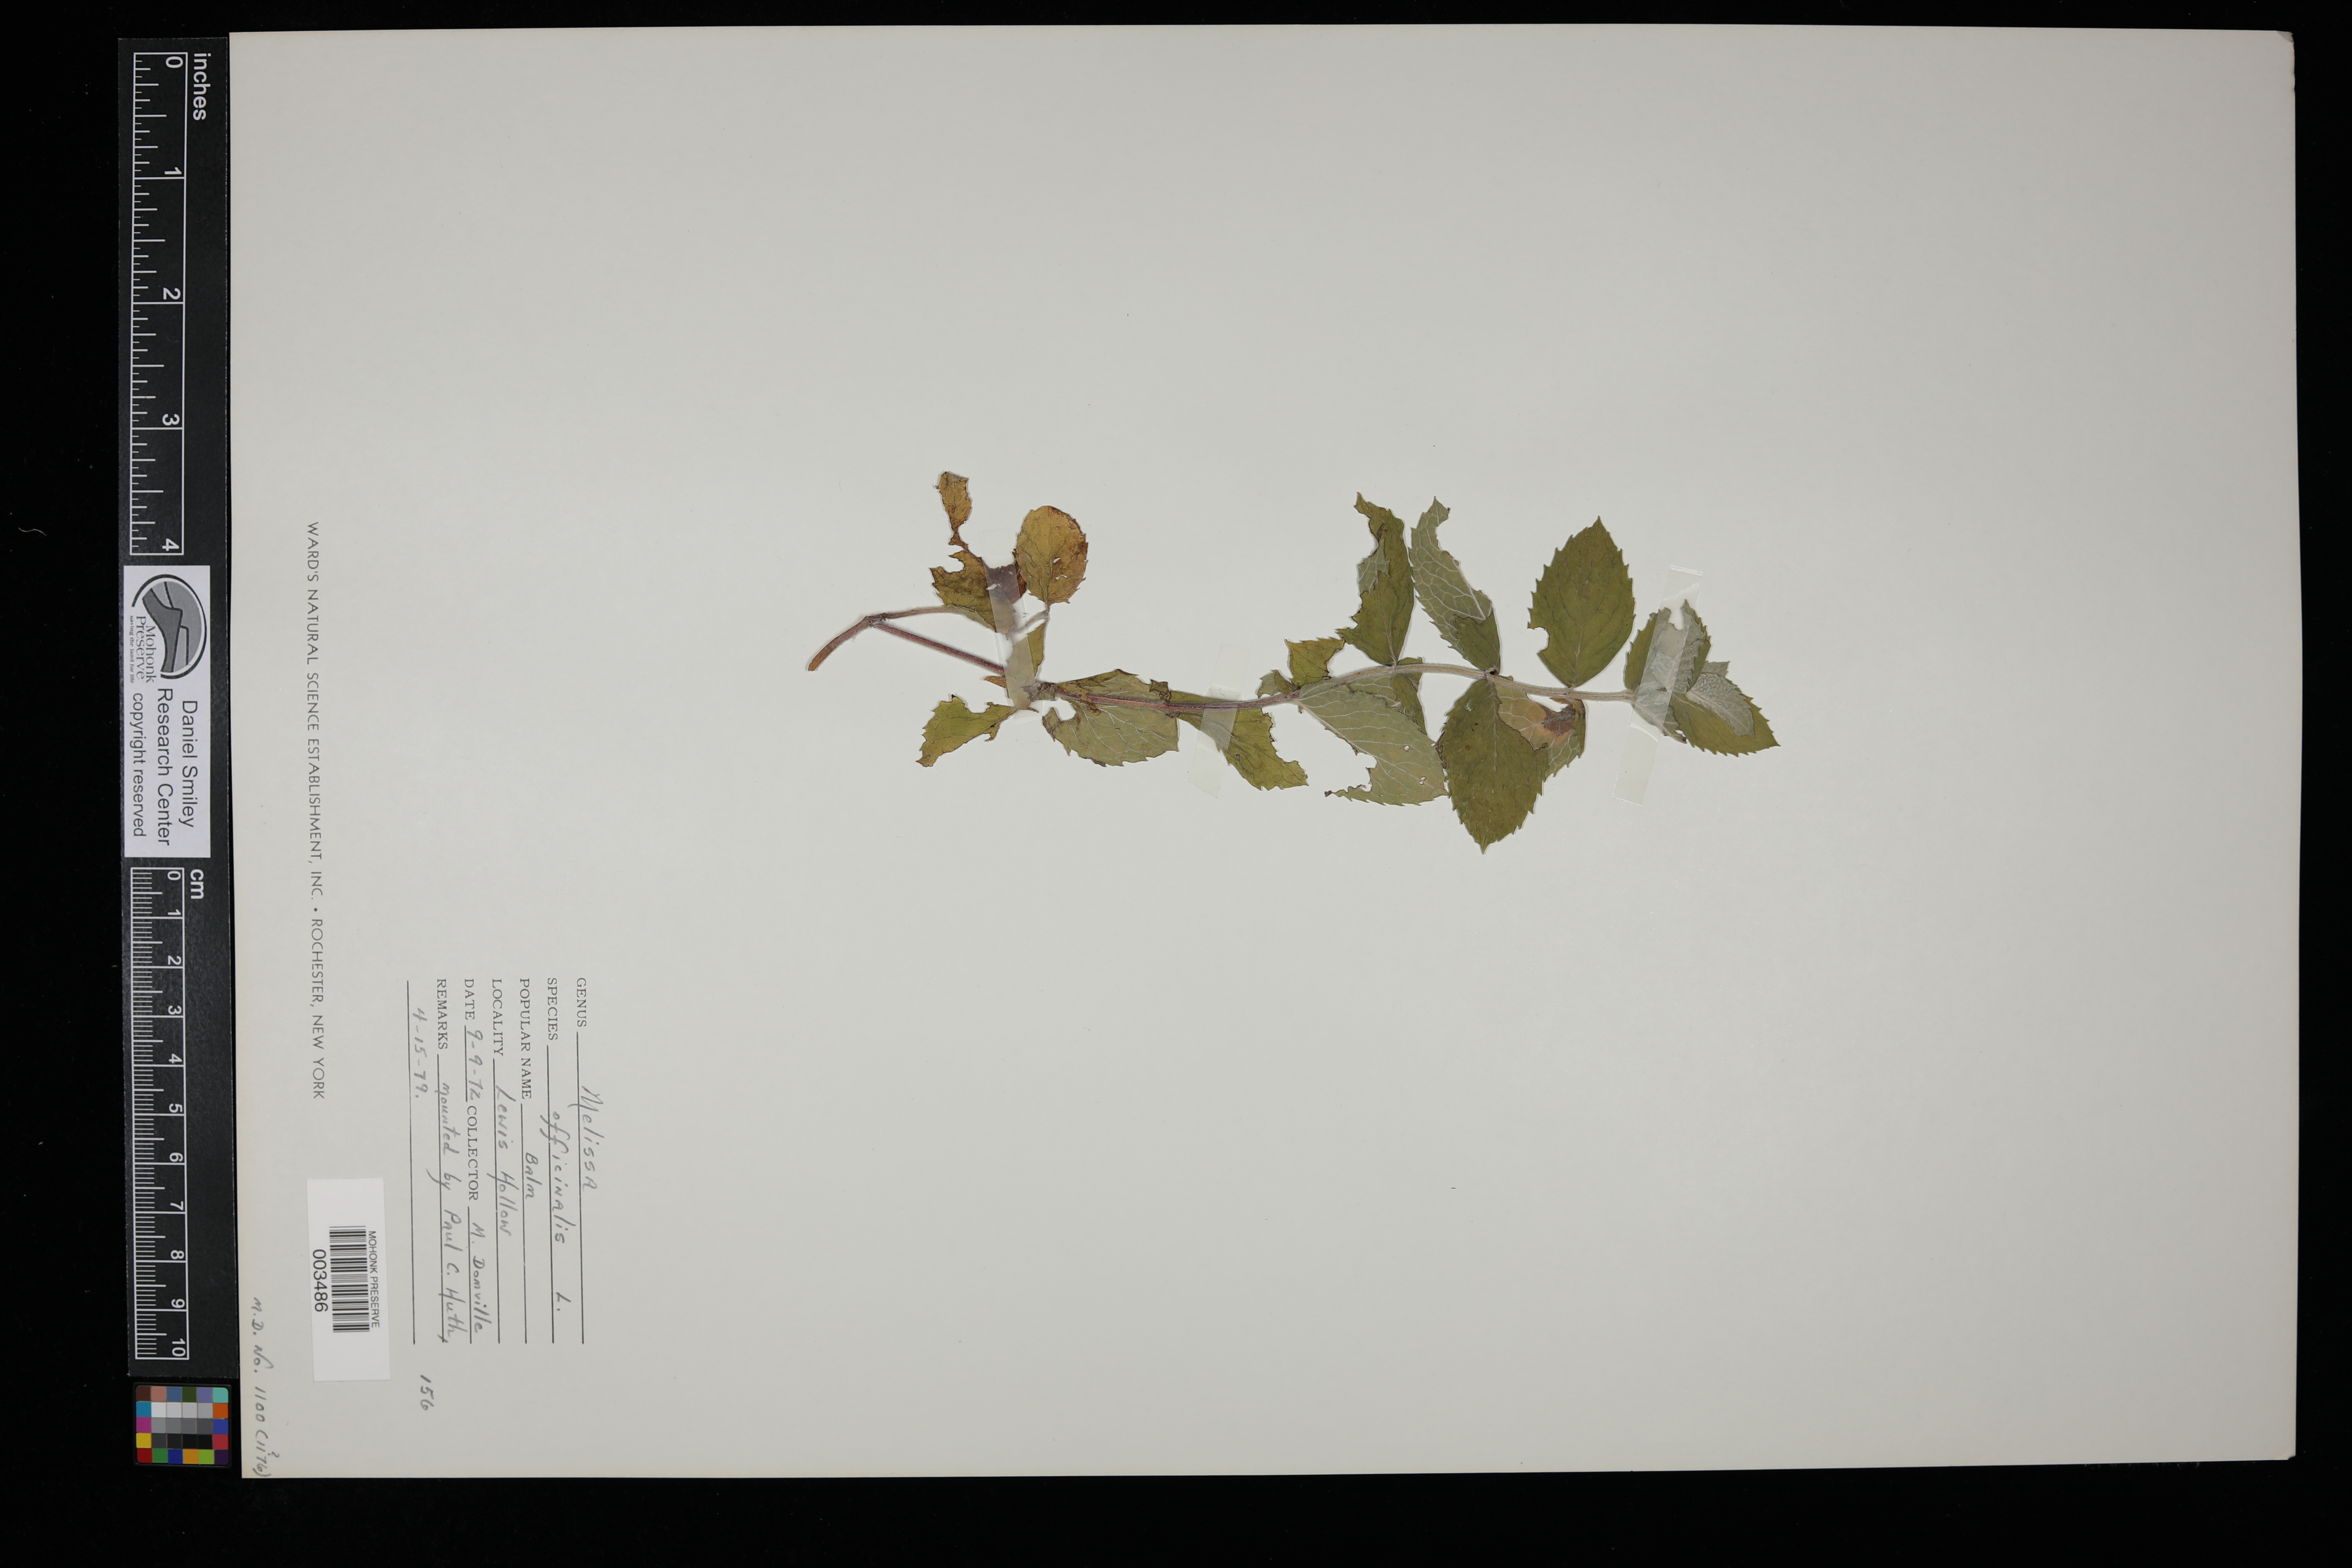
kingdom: Plantae
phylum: Tracheophyta
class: Magnoliopsida
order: Lamiales
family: Lamiaceae
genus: Melissa
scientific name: Melissa officinalis
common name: Balm
